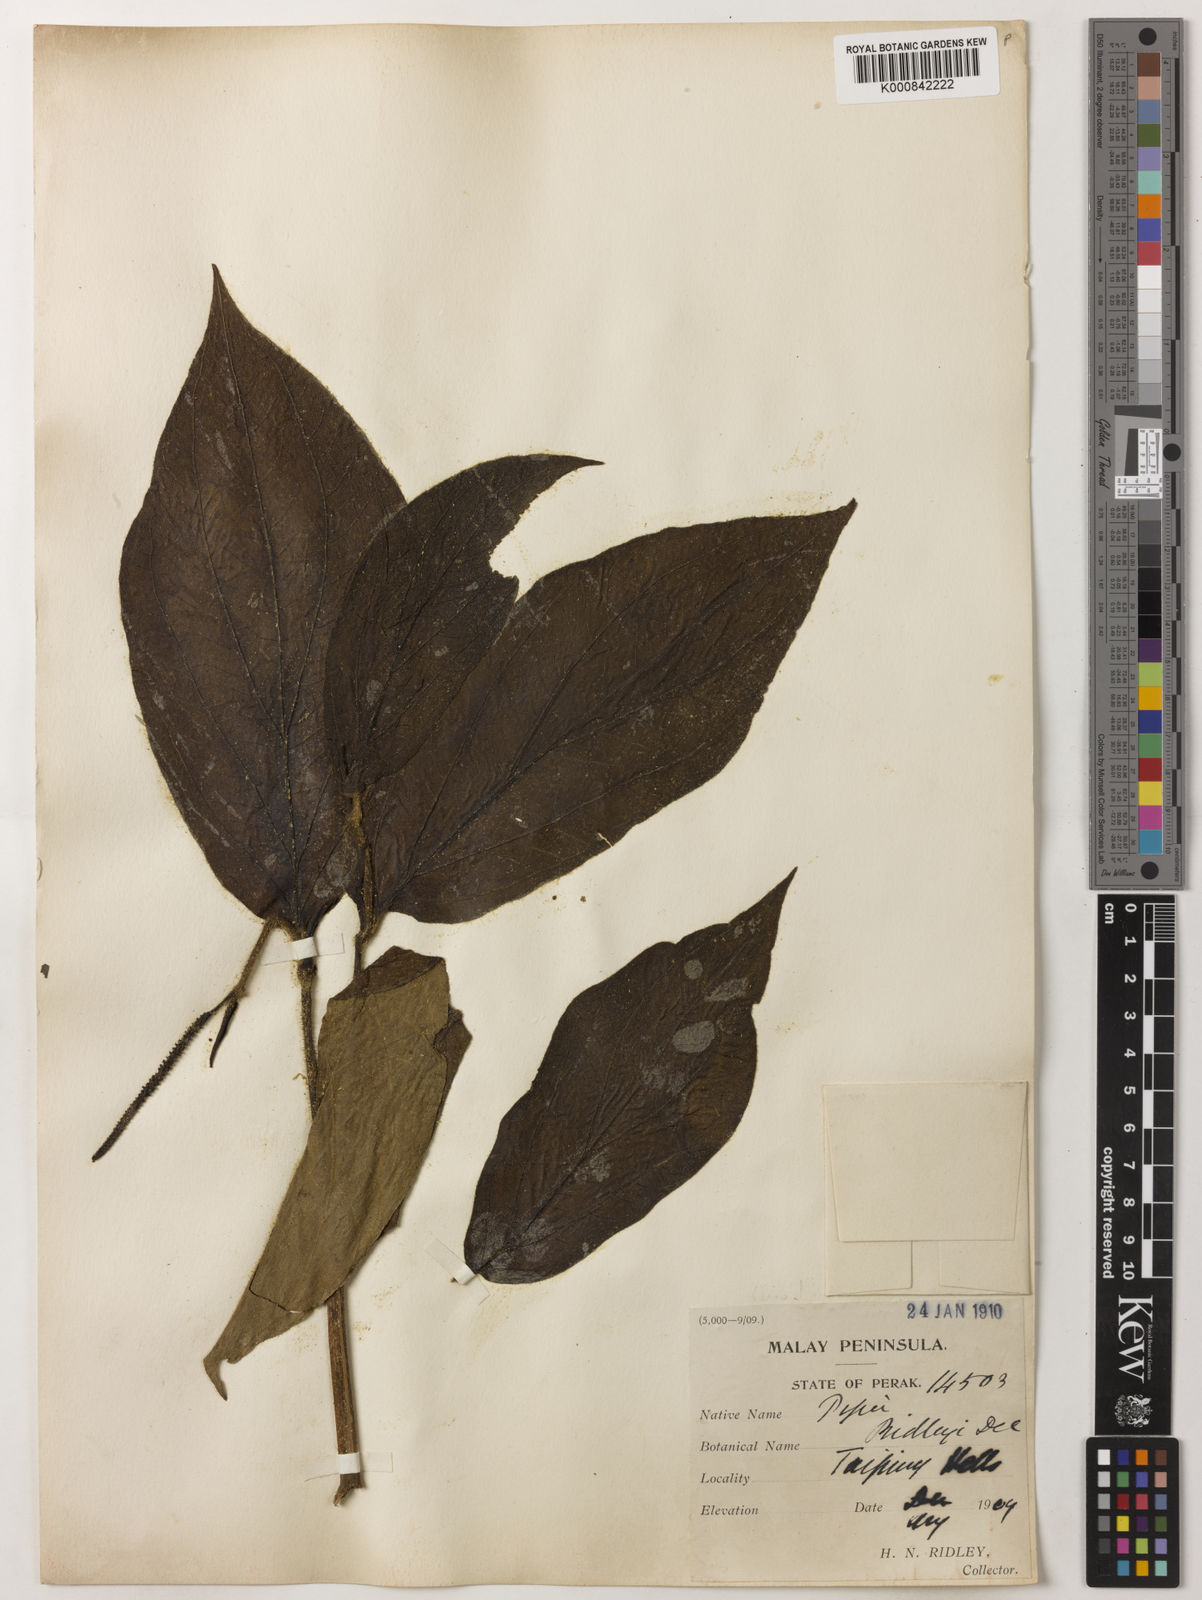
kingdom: Plantae
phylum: Tracheophyta
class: Magnoliopsida
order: Piperales
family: Piperaceae
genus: Piper
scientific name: Piper ridleyi
